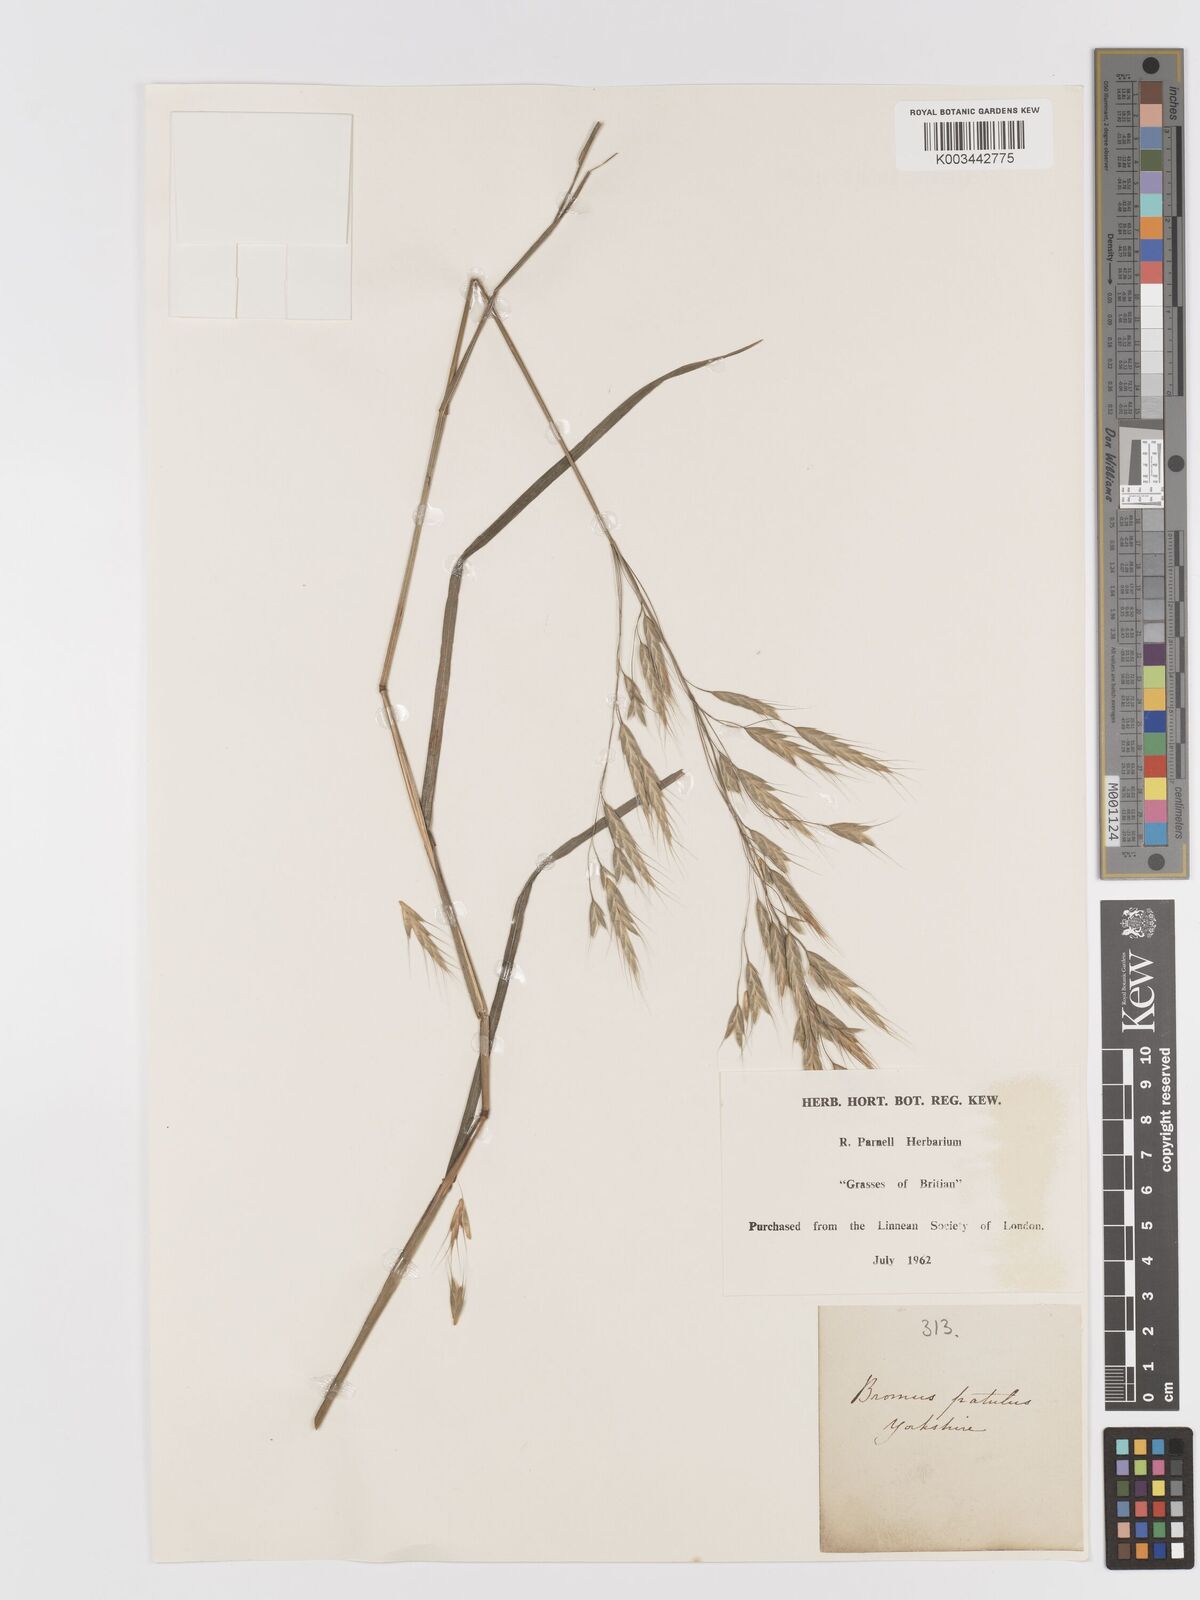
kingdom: Plantae
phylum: Tracheophyta
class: Liliopsida
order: Poales
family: Poaceae
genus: Bromus
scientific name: Bromus japonicus
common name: Japanese brome
